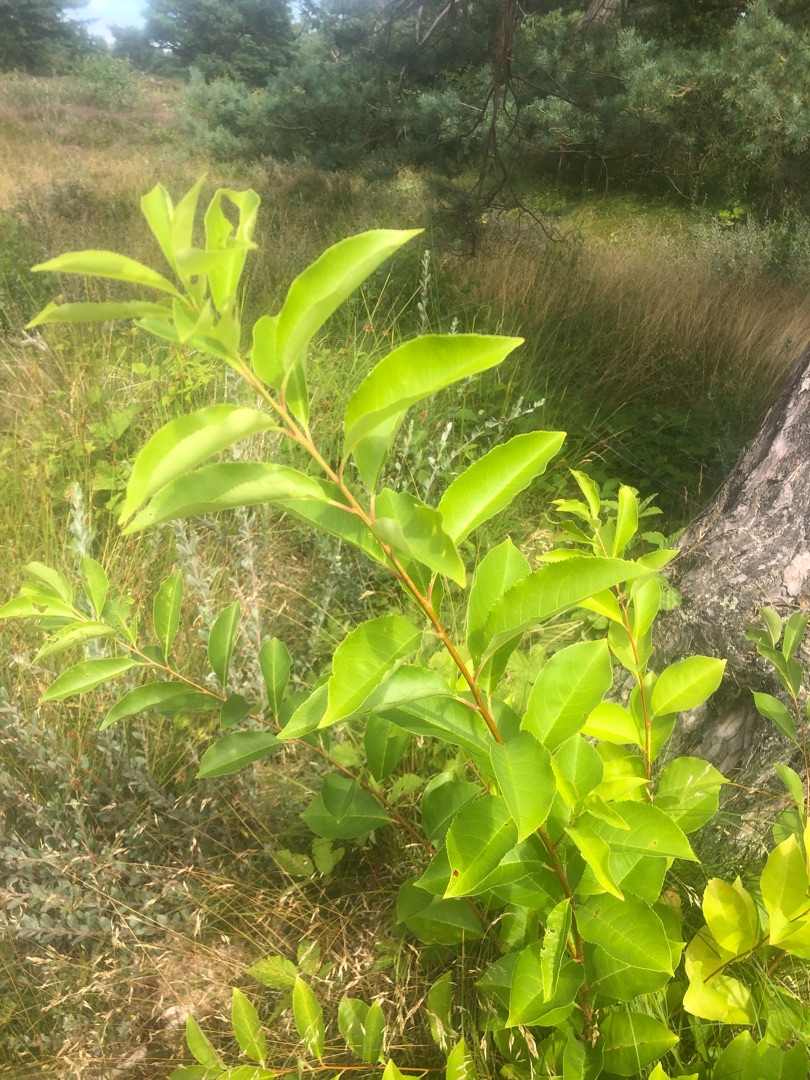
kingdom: Plantae
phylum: Tracheophyta
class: Magnoliopsida
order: Rosales
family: Rosaceae
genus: Prunus
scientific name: Prunus serotina
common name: Glansbladet hæg
